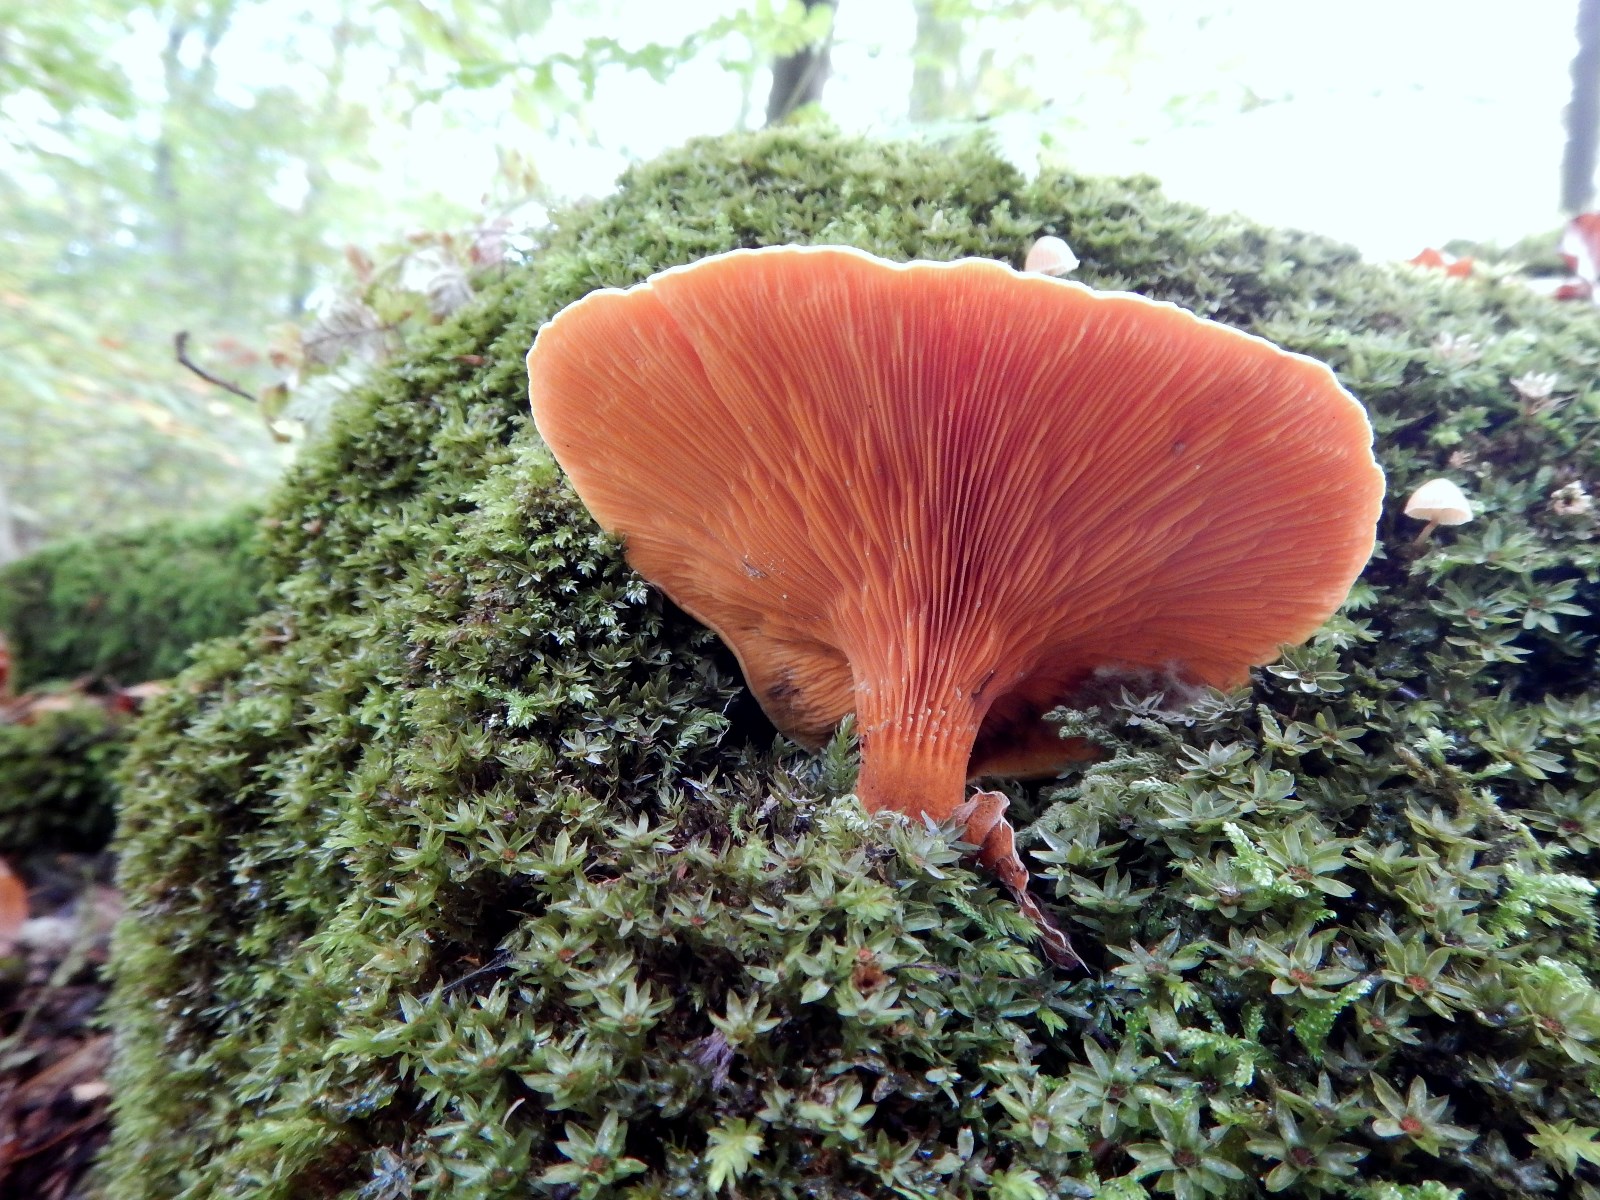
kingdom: Fungi
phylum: Basidiomycota
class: Agaricomycetes
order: Boletales
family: Hygrophoropsidaceae
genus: Hygrophoropsis
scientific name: Hygrophoropsis aurantiaca
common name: almindelig orangekantarel
